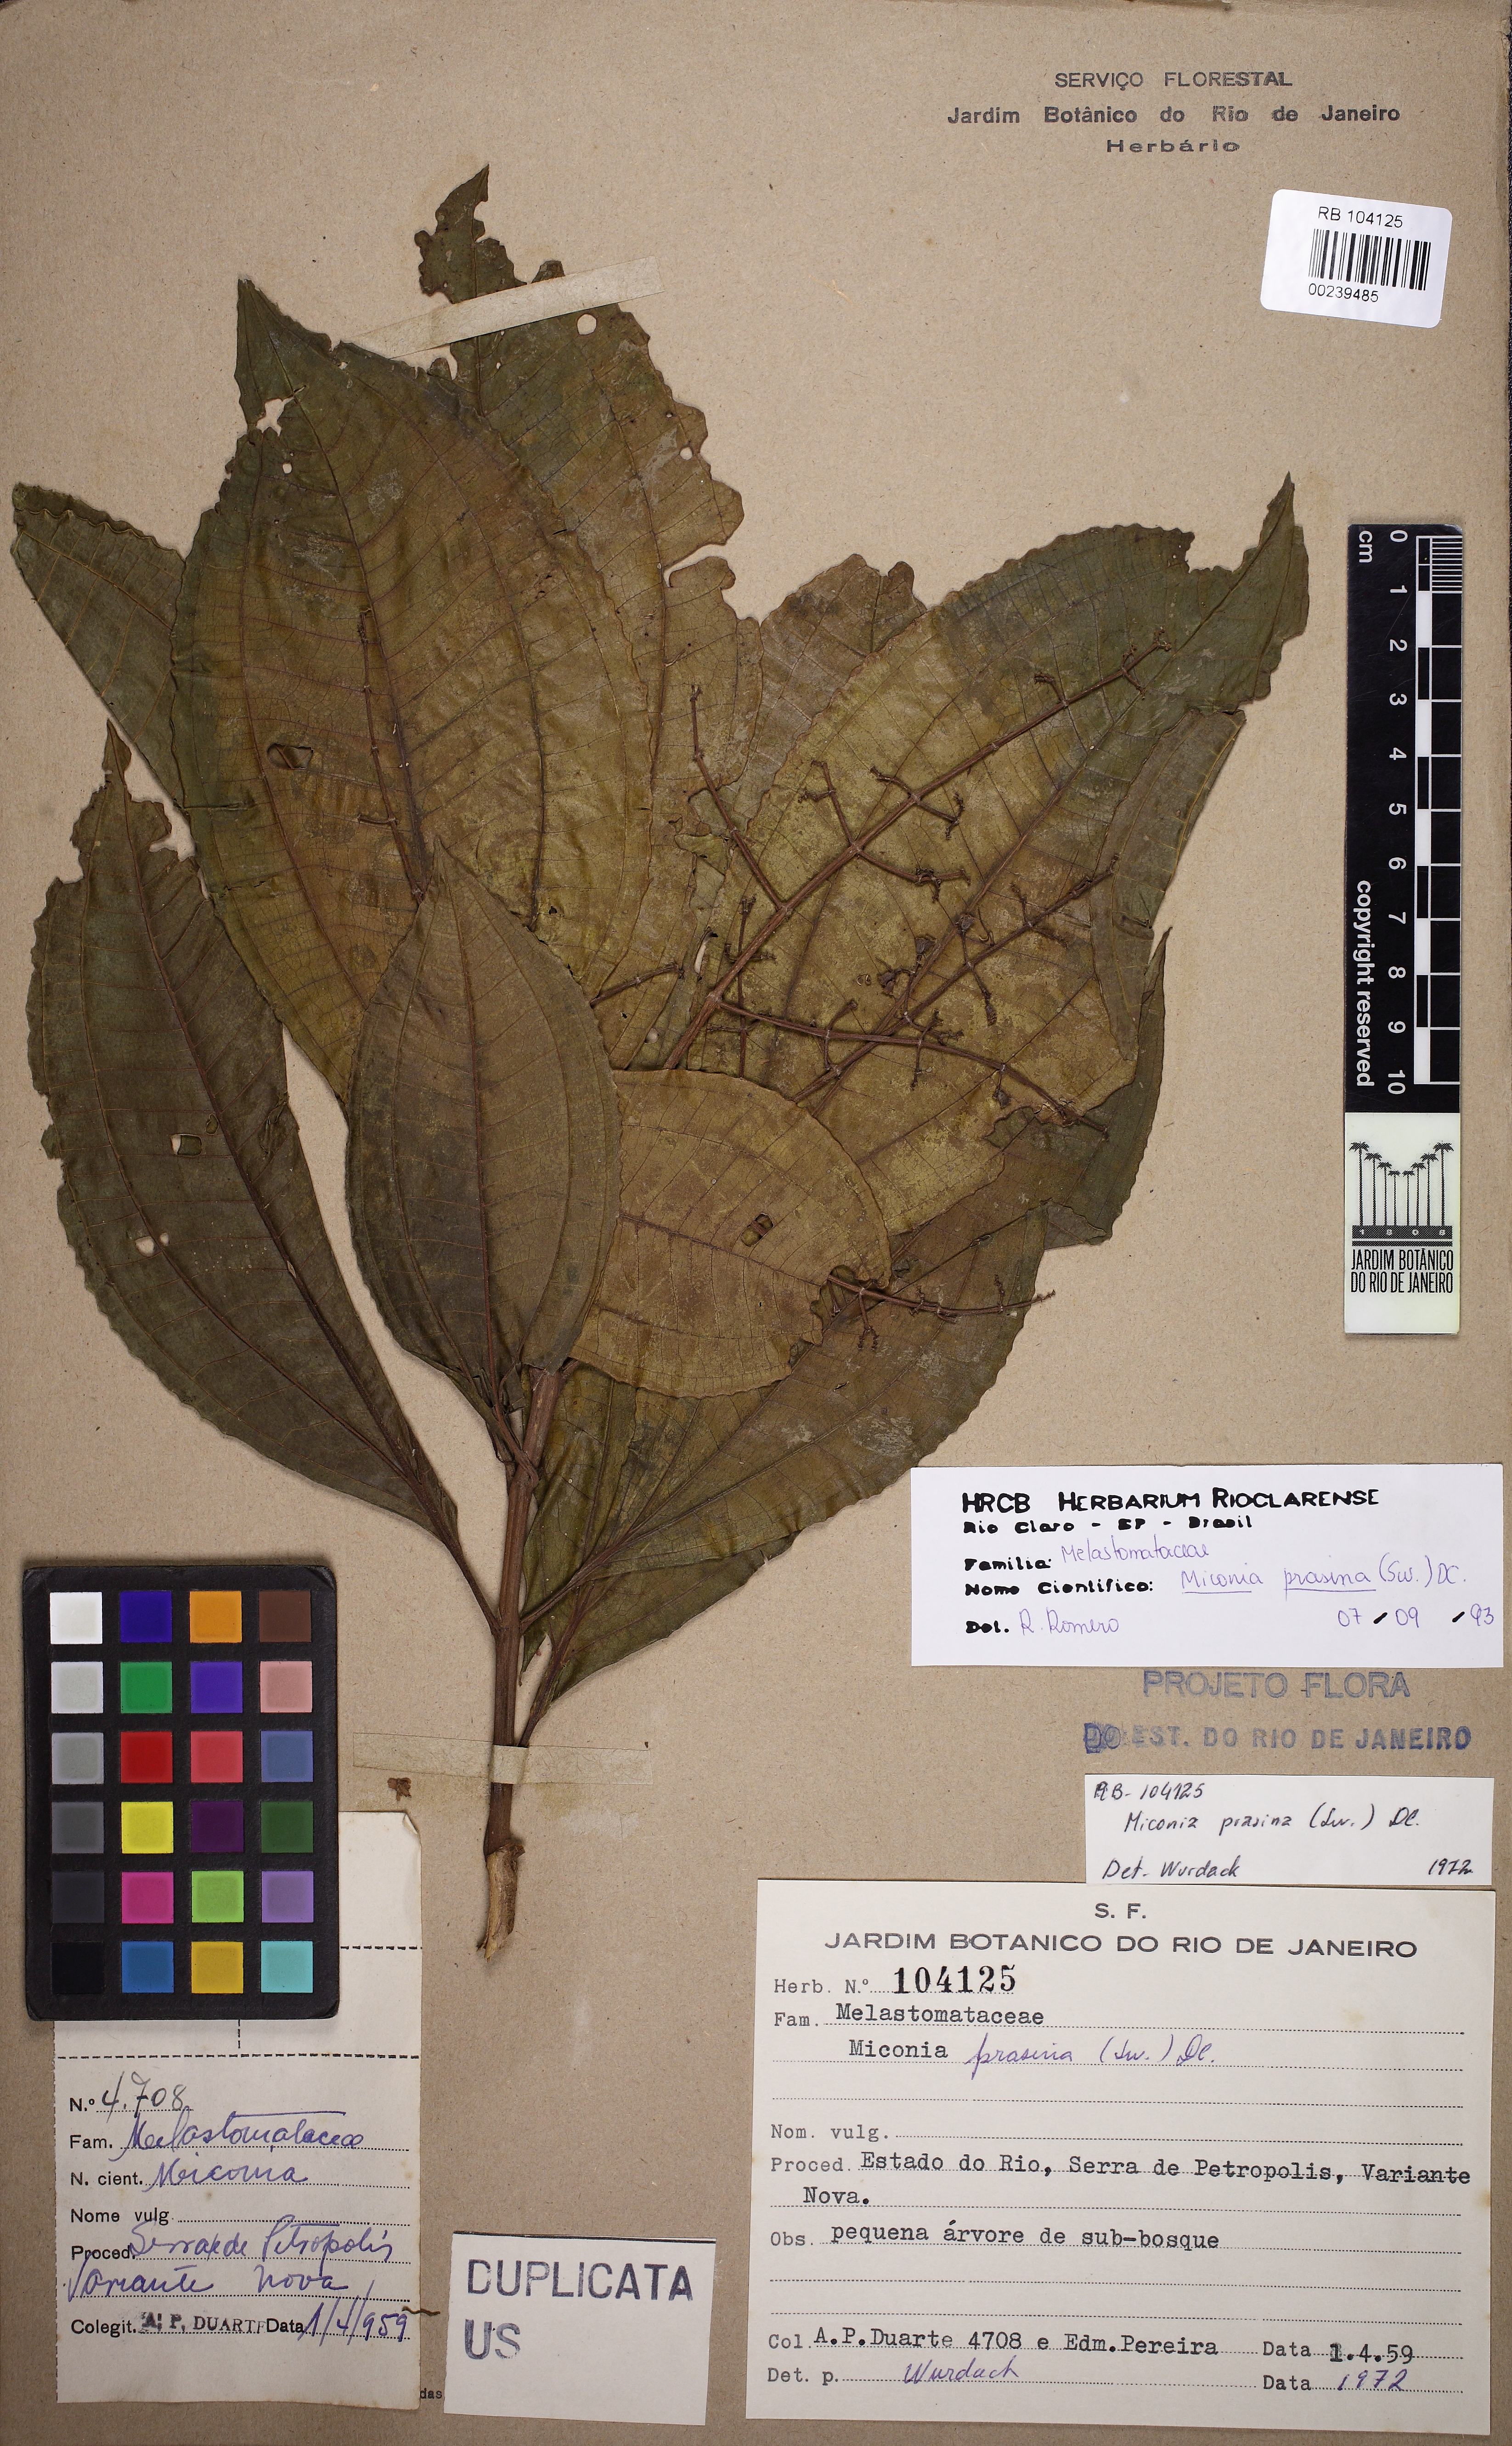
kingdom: Plantae
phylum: Tracheophyta
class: Magnoliopsida
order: Myrtales
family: Melastomataceae
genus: Miconia
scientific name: Miconia prasina
